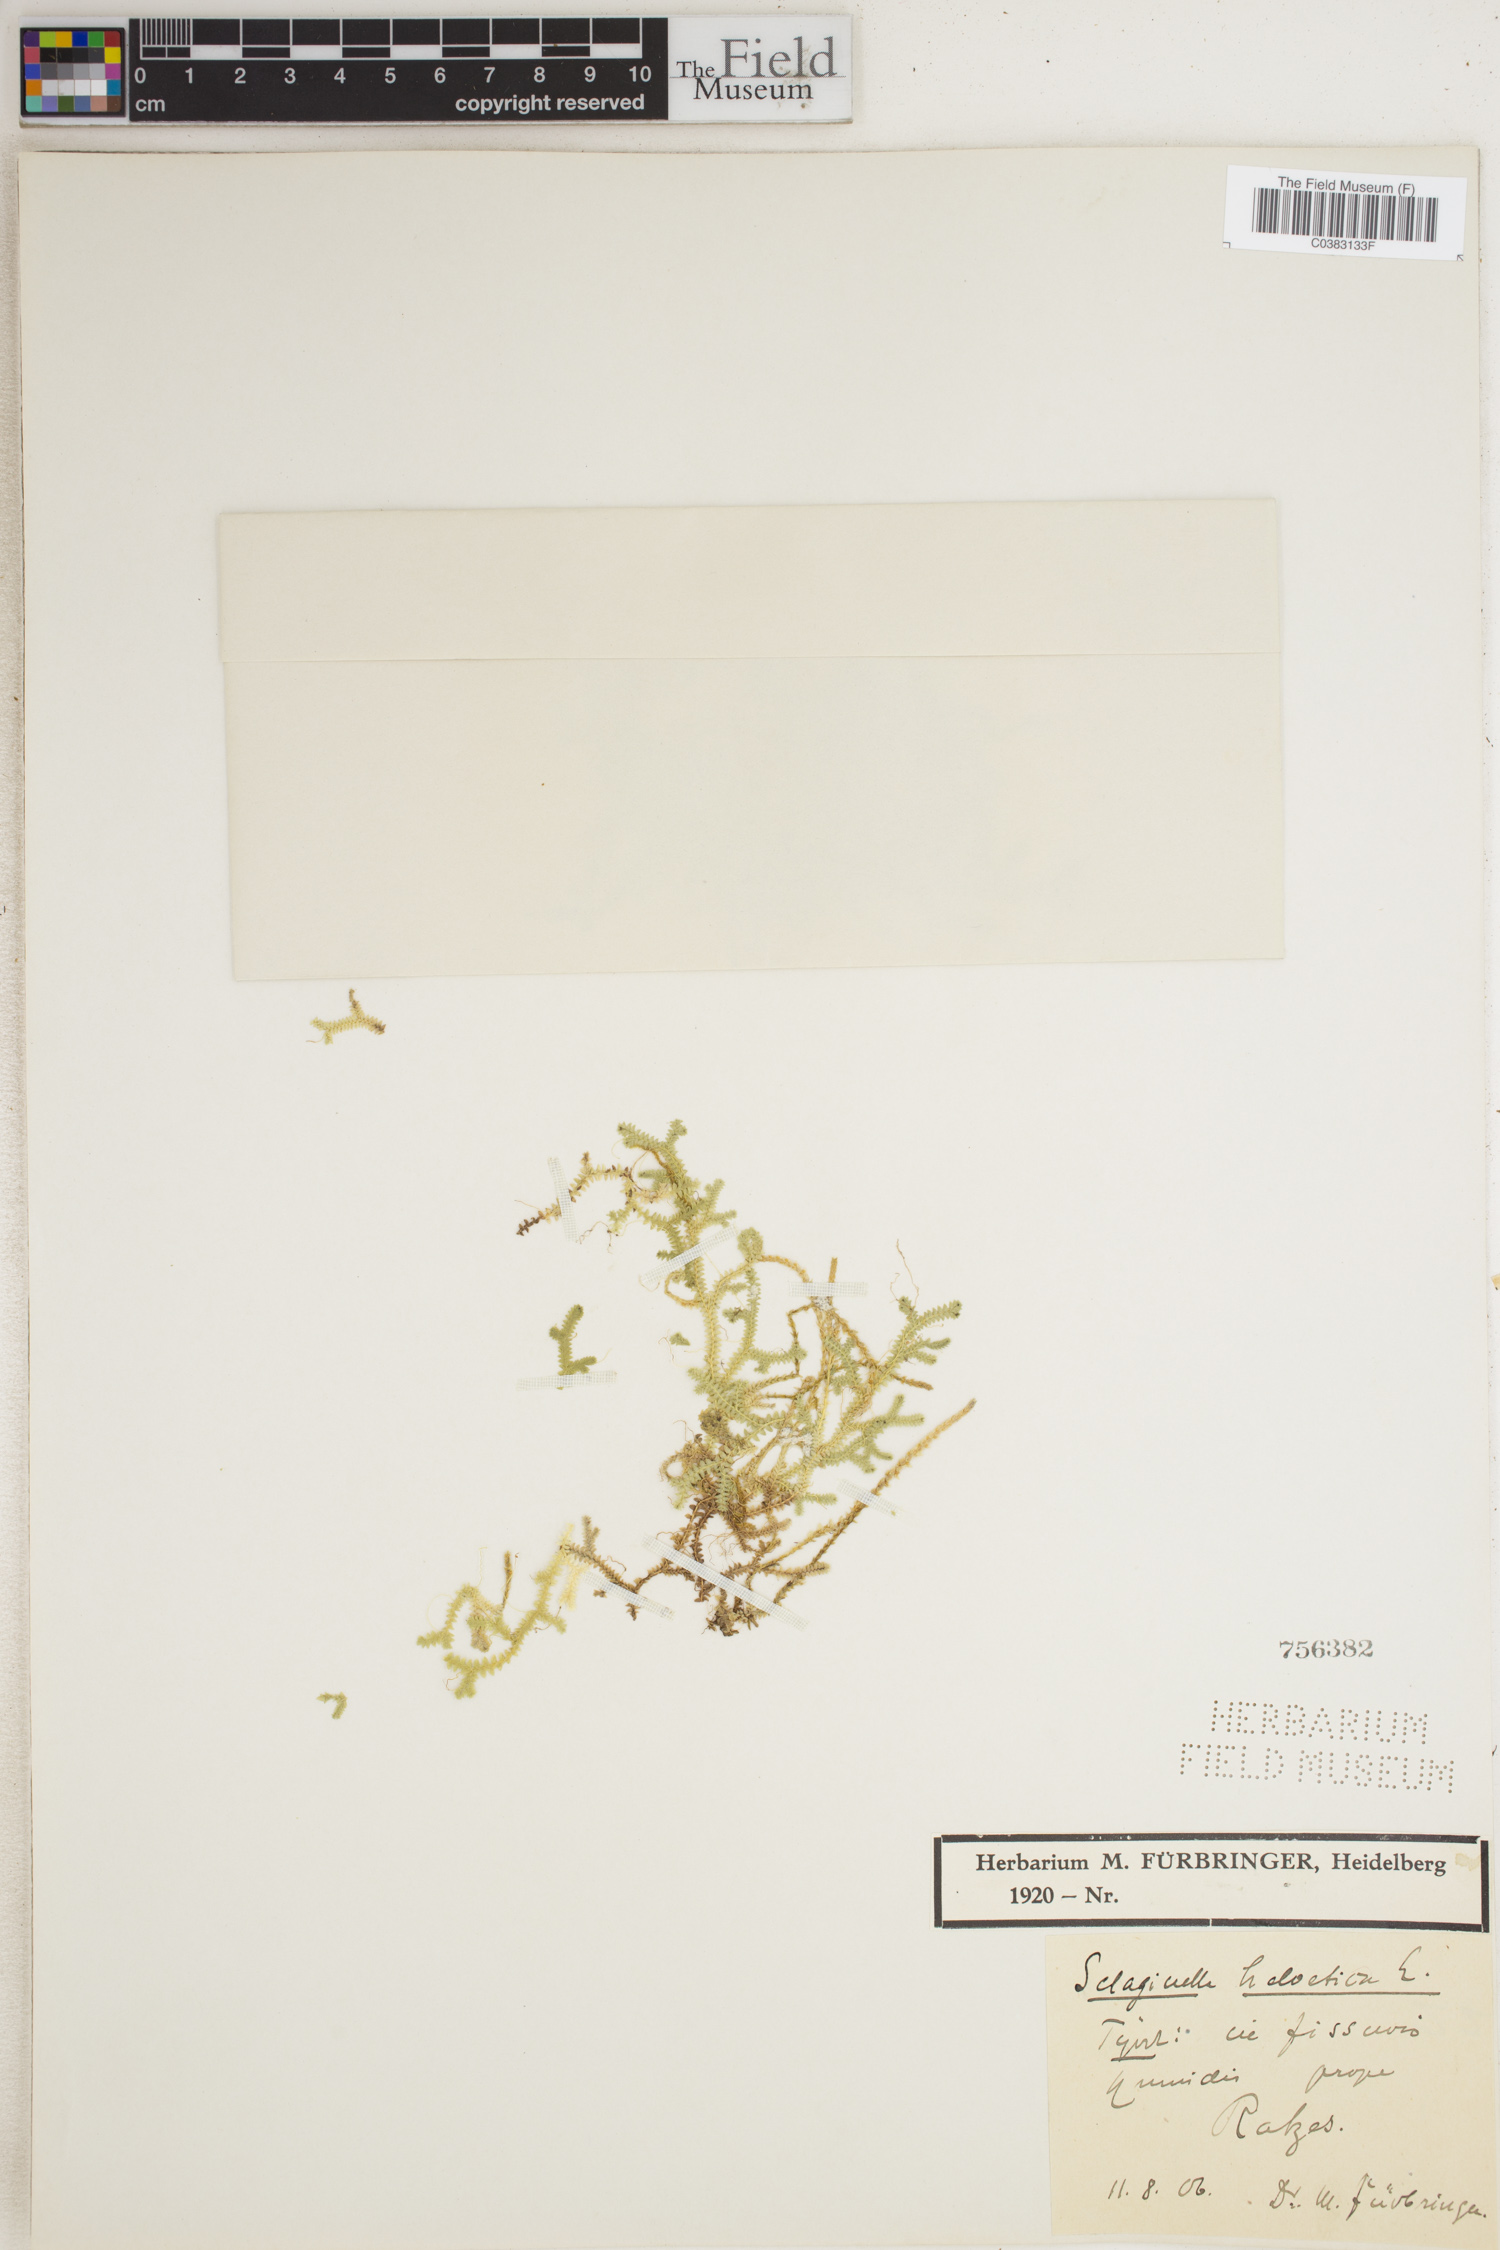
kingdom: Plantae
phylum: Tracheophyta
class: Lycopodiopsida
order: Selaginellales
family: Selaginellaceae
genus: Selaginella
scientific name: Selaginella helvetica
